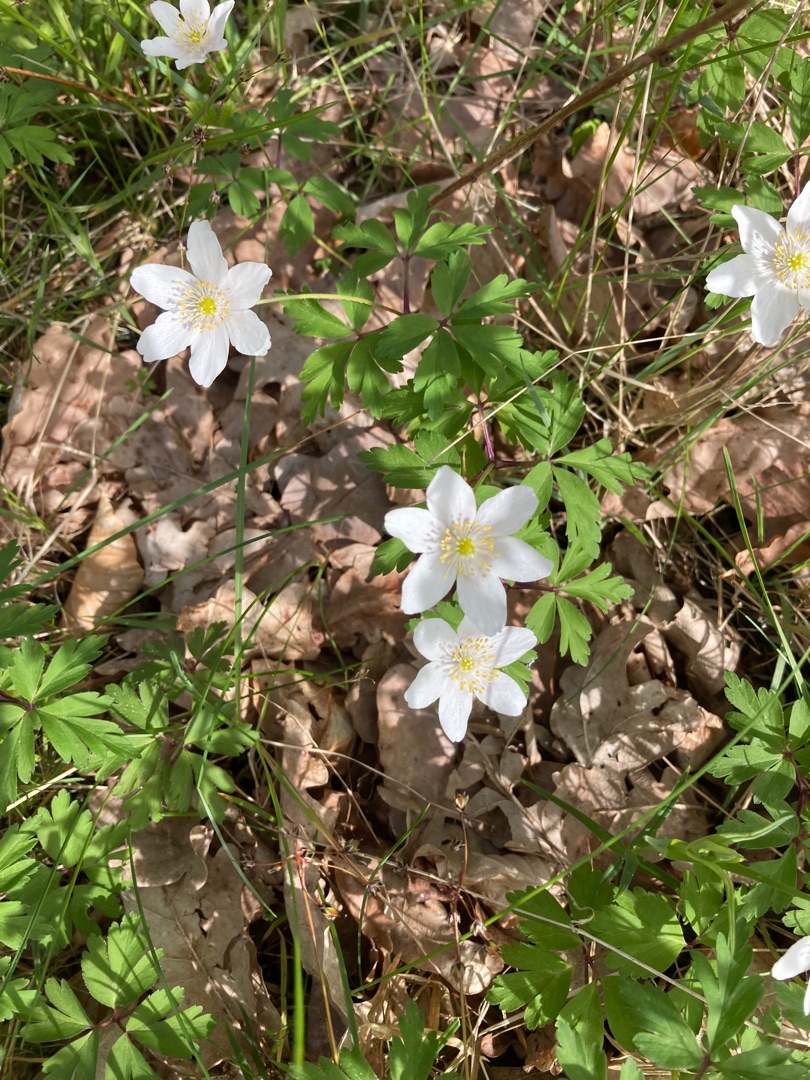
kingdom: Plantae
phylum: Tracheophyta
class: Magnoliopsida
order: Ranunculales
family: Ranunculaceae
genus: Anemone
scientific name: Anemone nemorosa
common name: Hvid anemone
